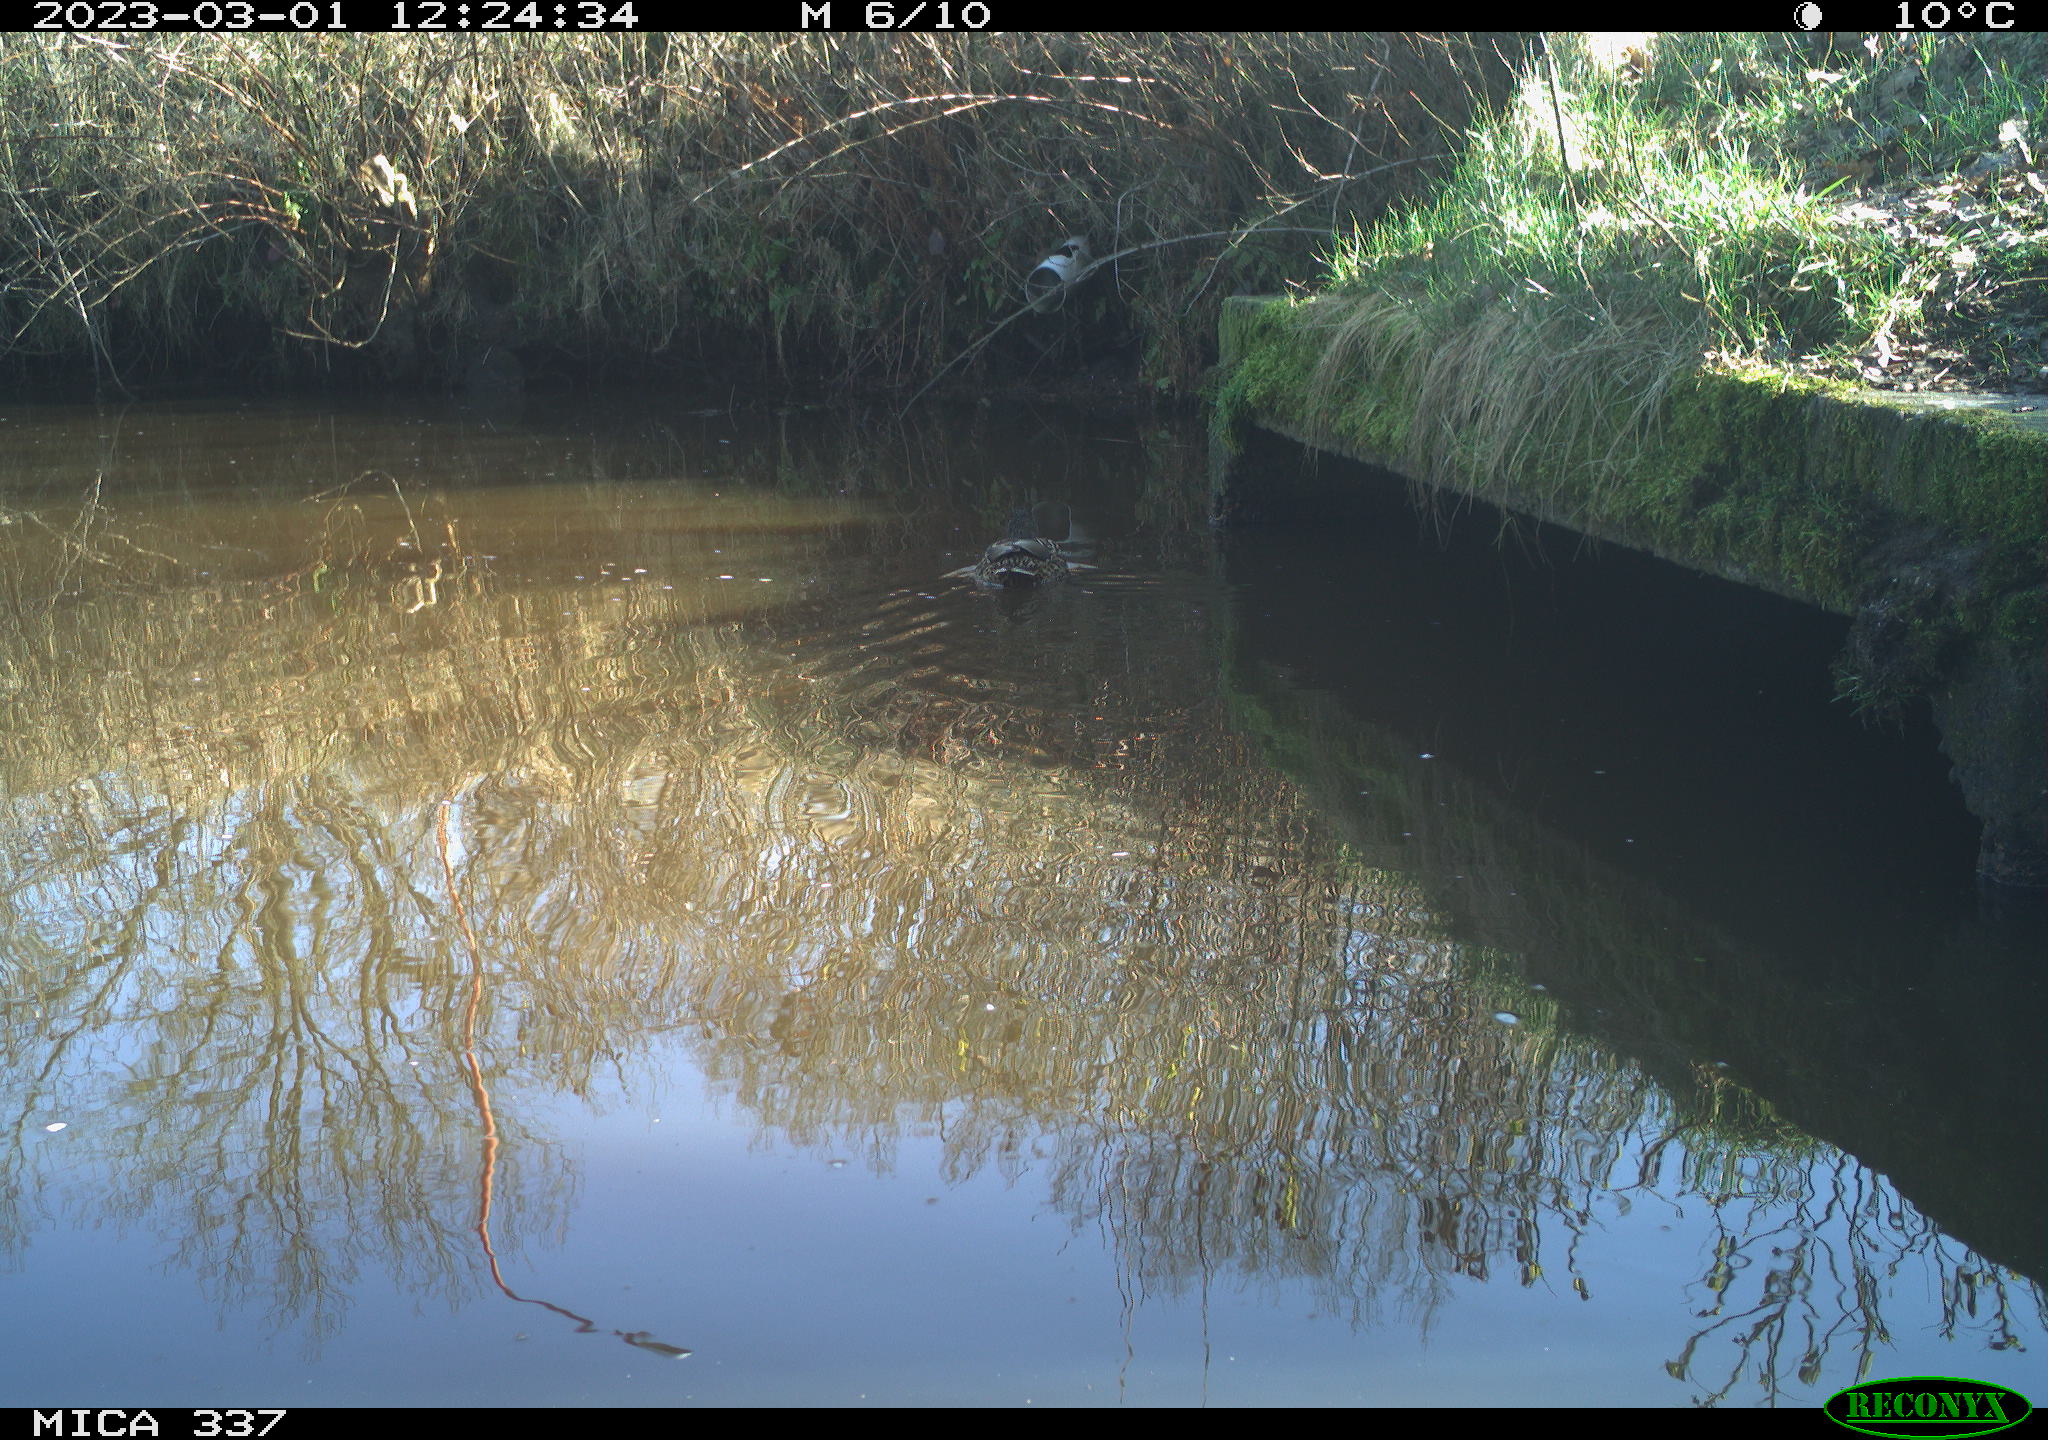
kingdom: Animalia
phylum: Chordata
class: Aves
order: Anseriformes
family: Anatidae
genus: Anas
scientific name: Anas
